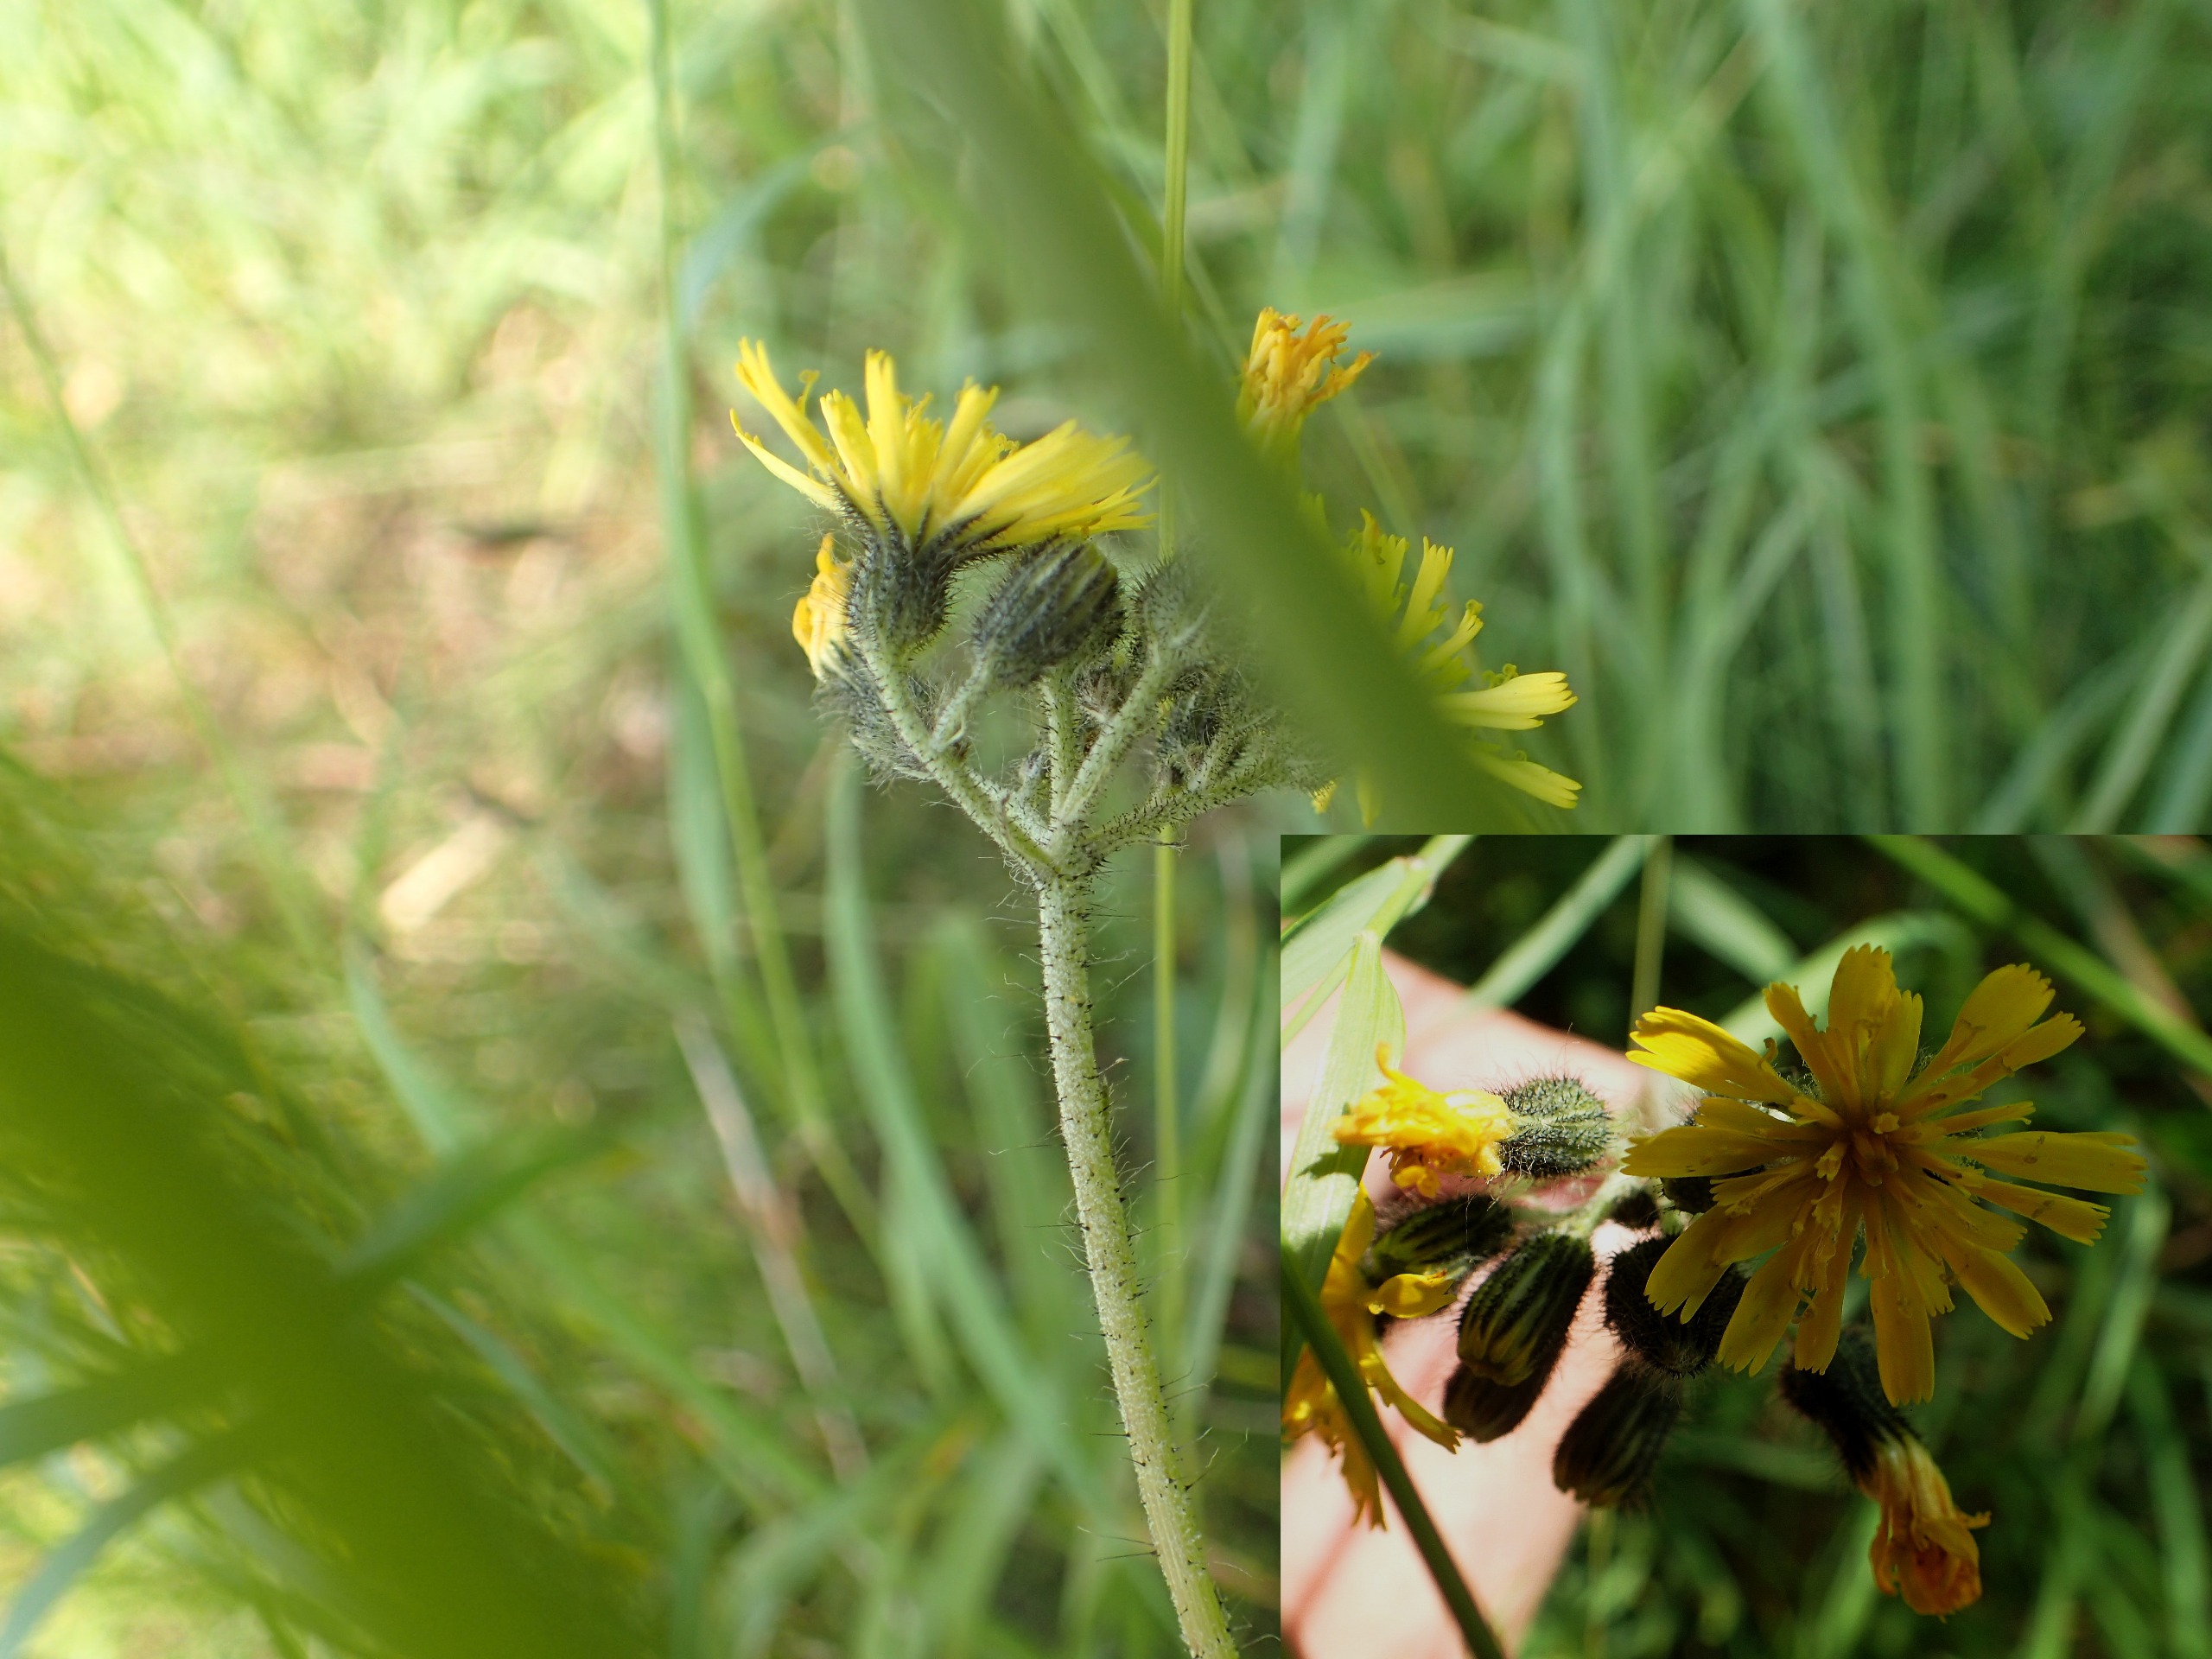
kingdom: Plantae
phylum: Tracheophyta
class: Magnoliopsida
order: Asterales
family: Asteraceae
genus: Pilosella
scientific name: Pilosella caespitosa
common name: Eng-høgeurt
